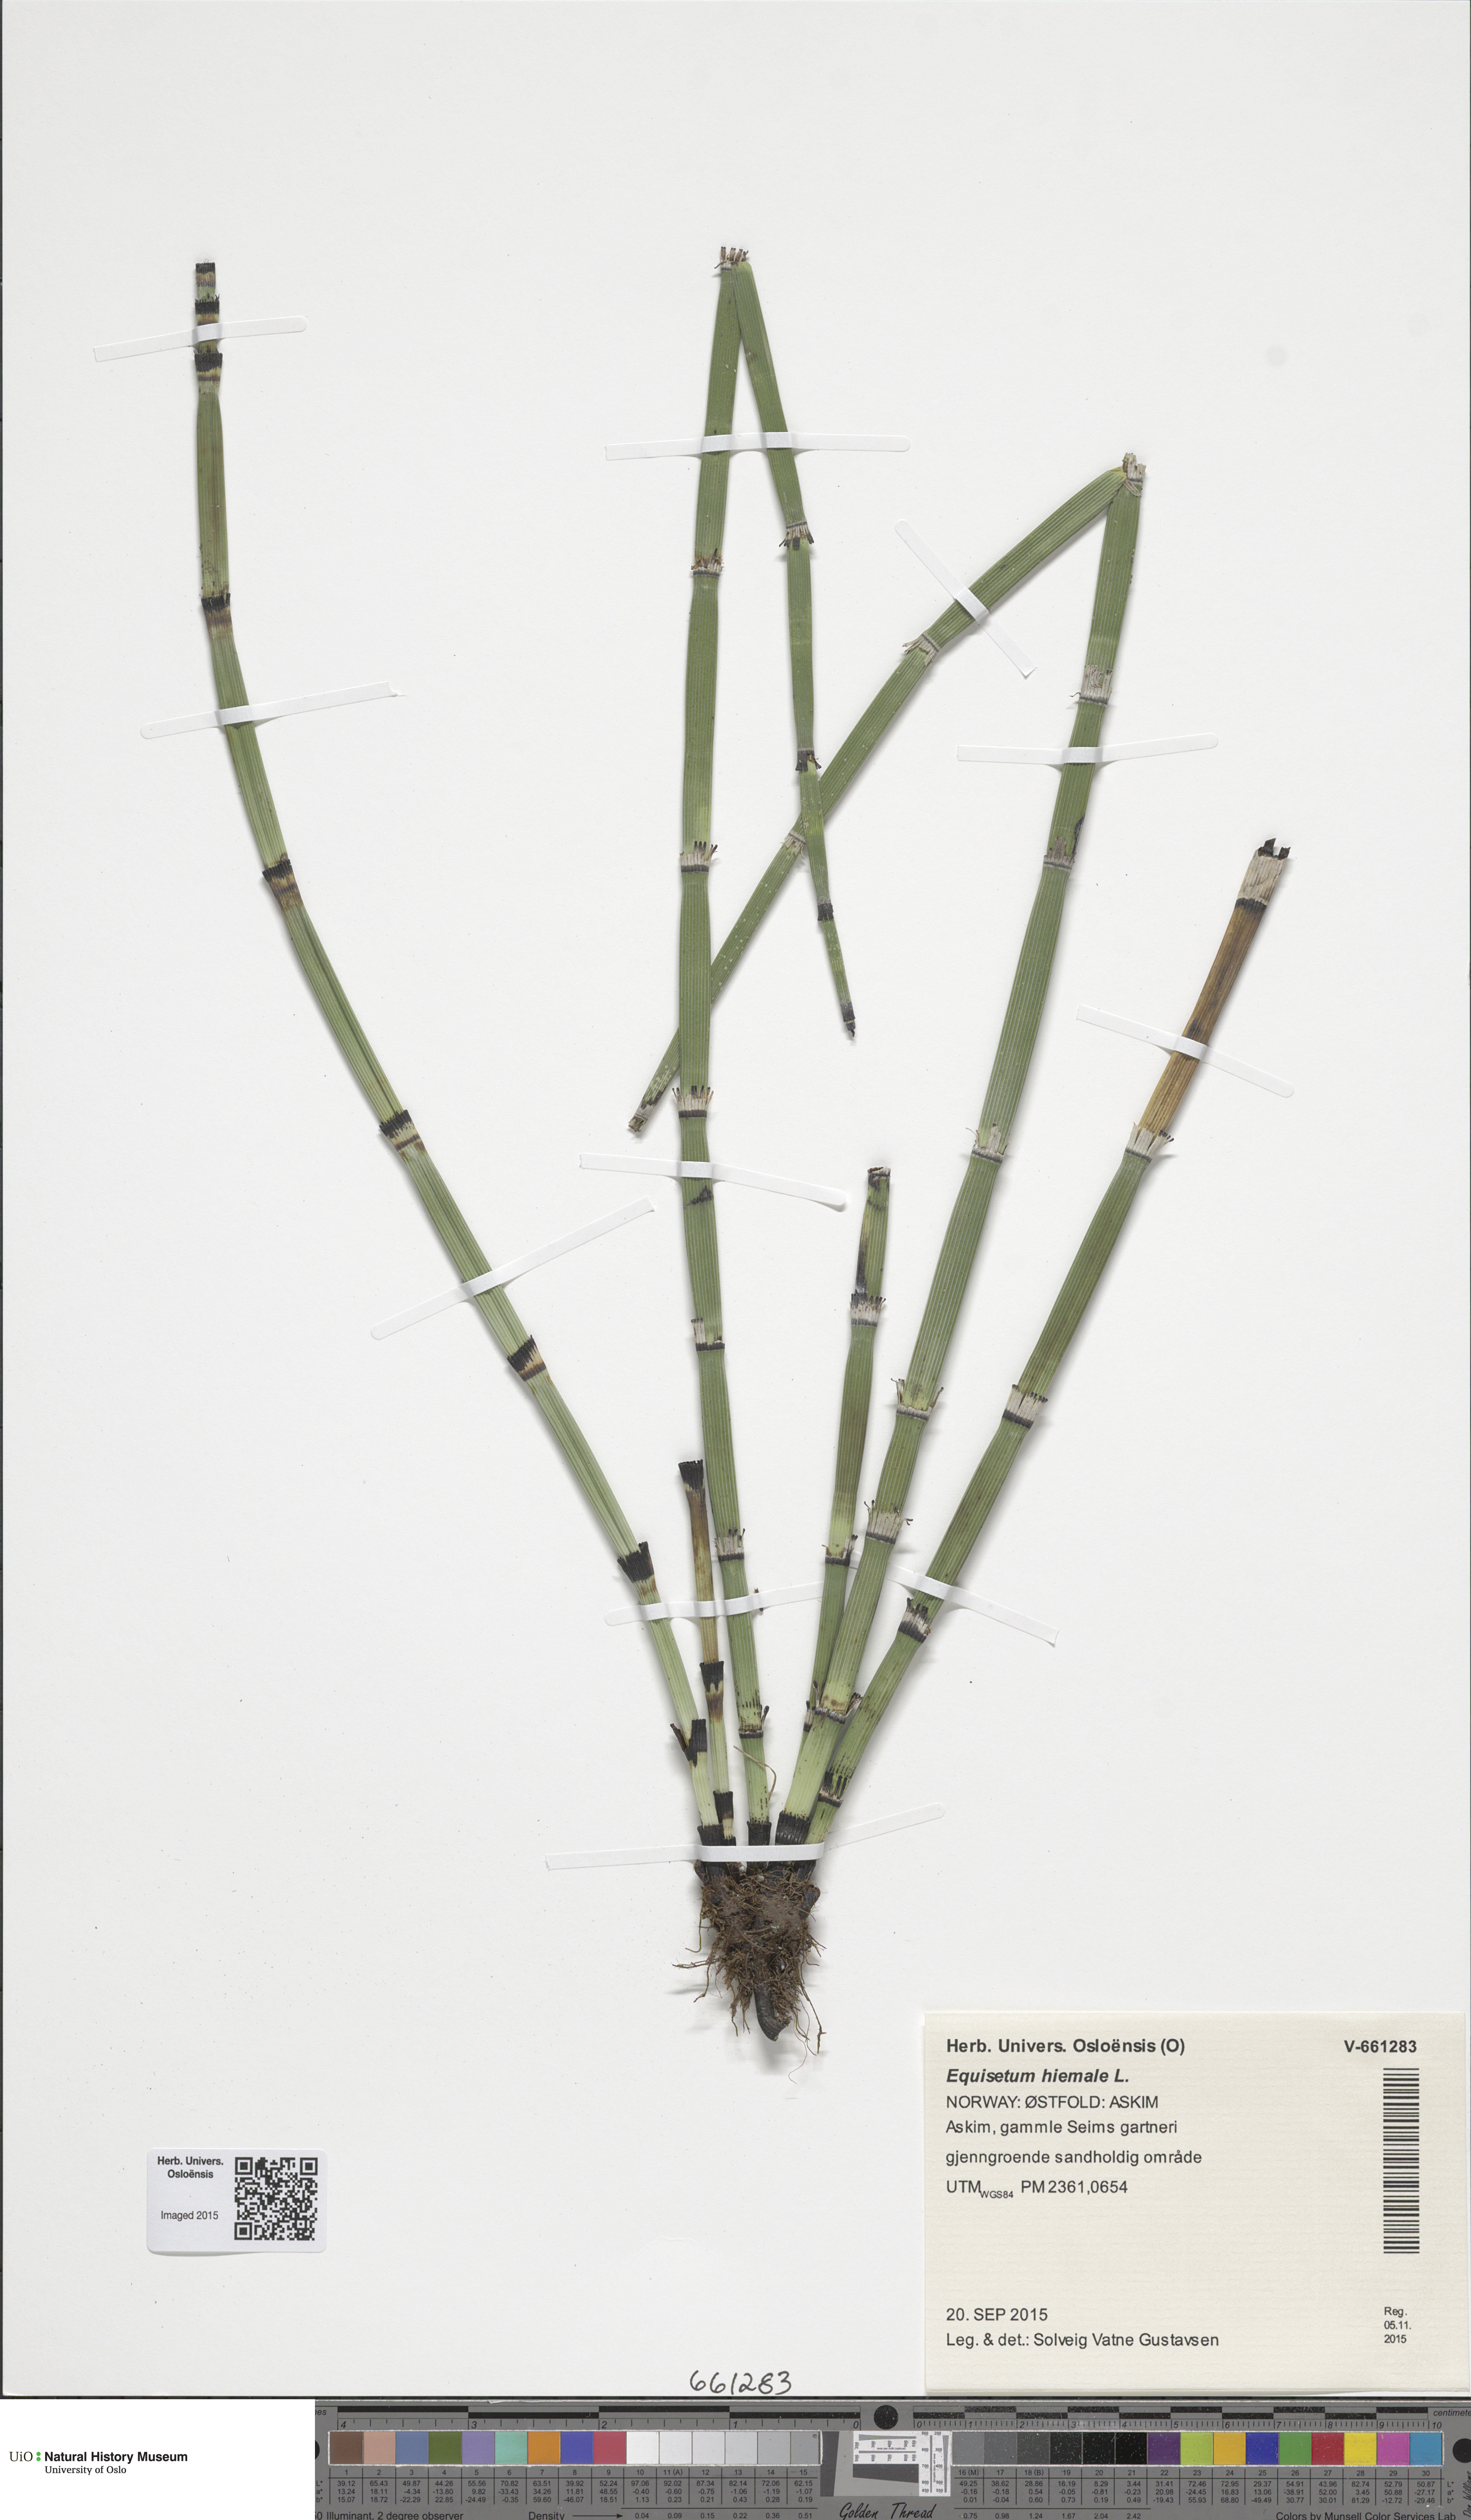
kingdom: Plantae
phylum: Tracheophyta
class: Polypodiopsida
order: Equisetales
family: Equisetaceae
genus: Equisetum
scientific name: Equisetum hyemale
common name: Rough horsetail
